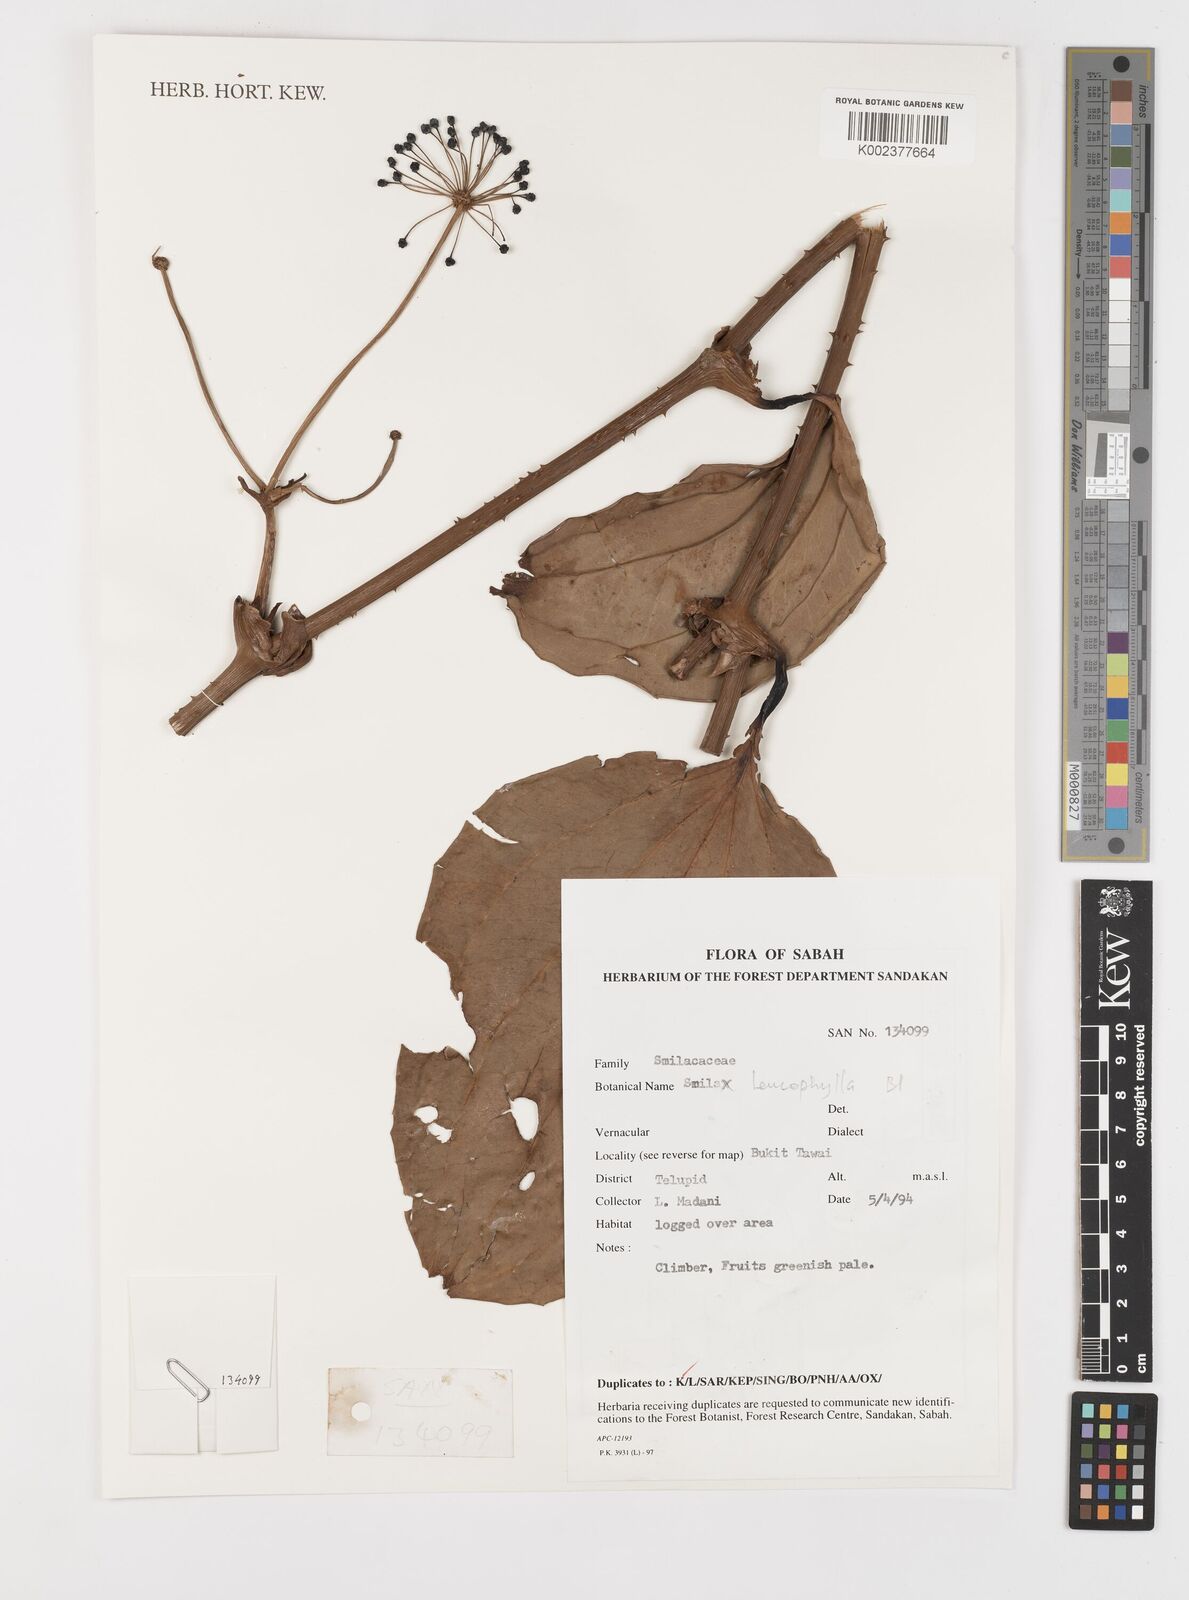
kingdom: Plantae
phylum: Tracheophyta
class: Liliopsida
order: Liliales
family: Smilacaceae
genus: Smilax
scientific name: Smilax leucophylla
